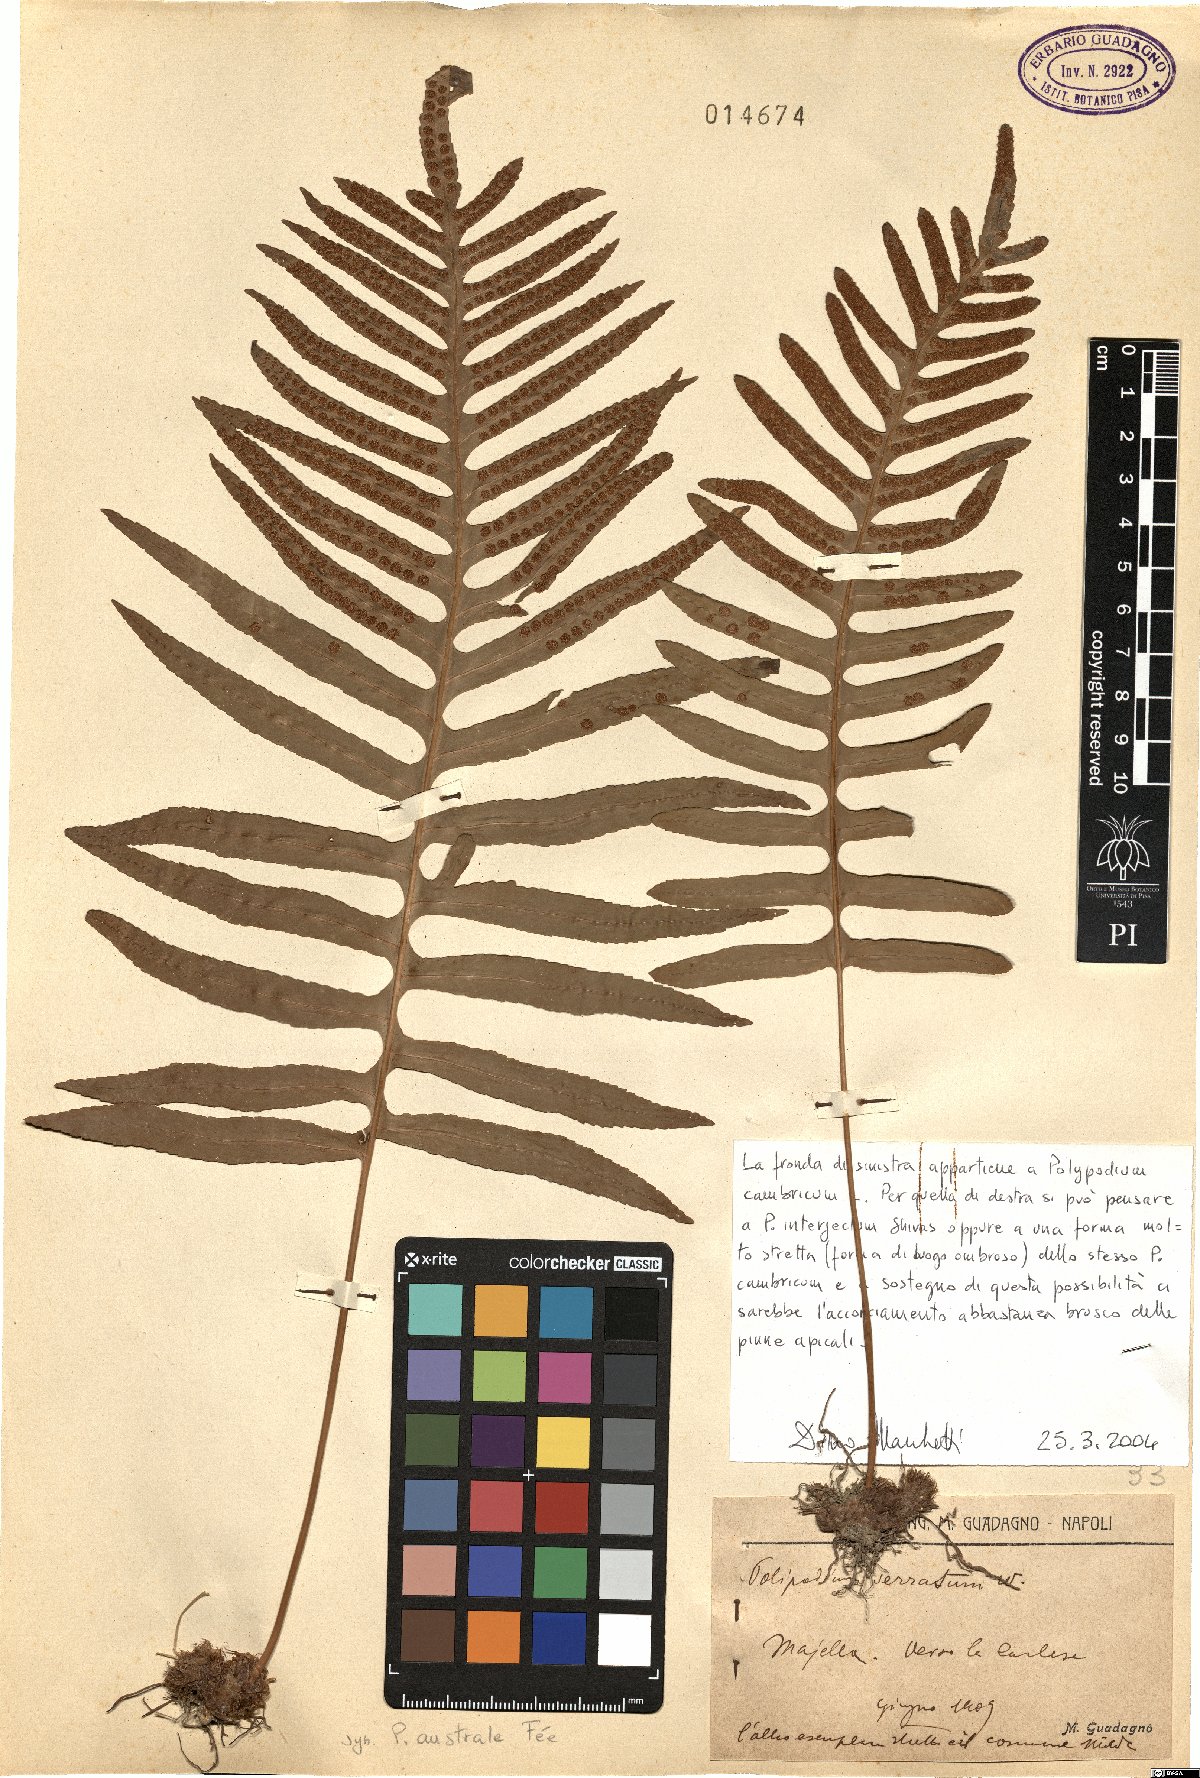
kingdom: Plantae
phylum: Tracheophyta
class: Polypodiopsida
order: Polypodiales
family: Polypodiaceae
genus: Polypodium
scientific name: Polypodium cambricum
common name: Southern polypody
